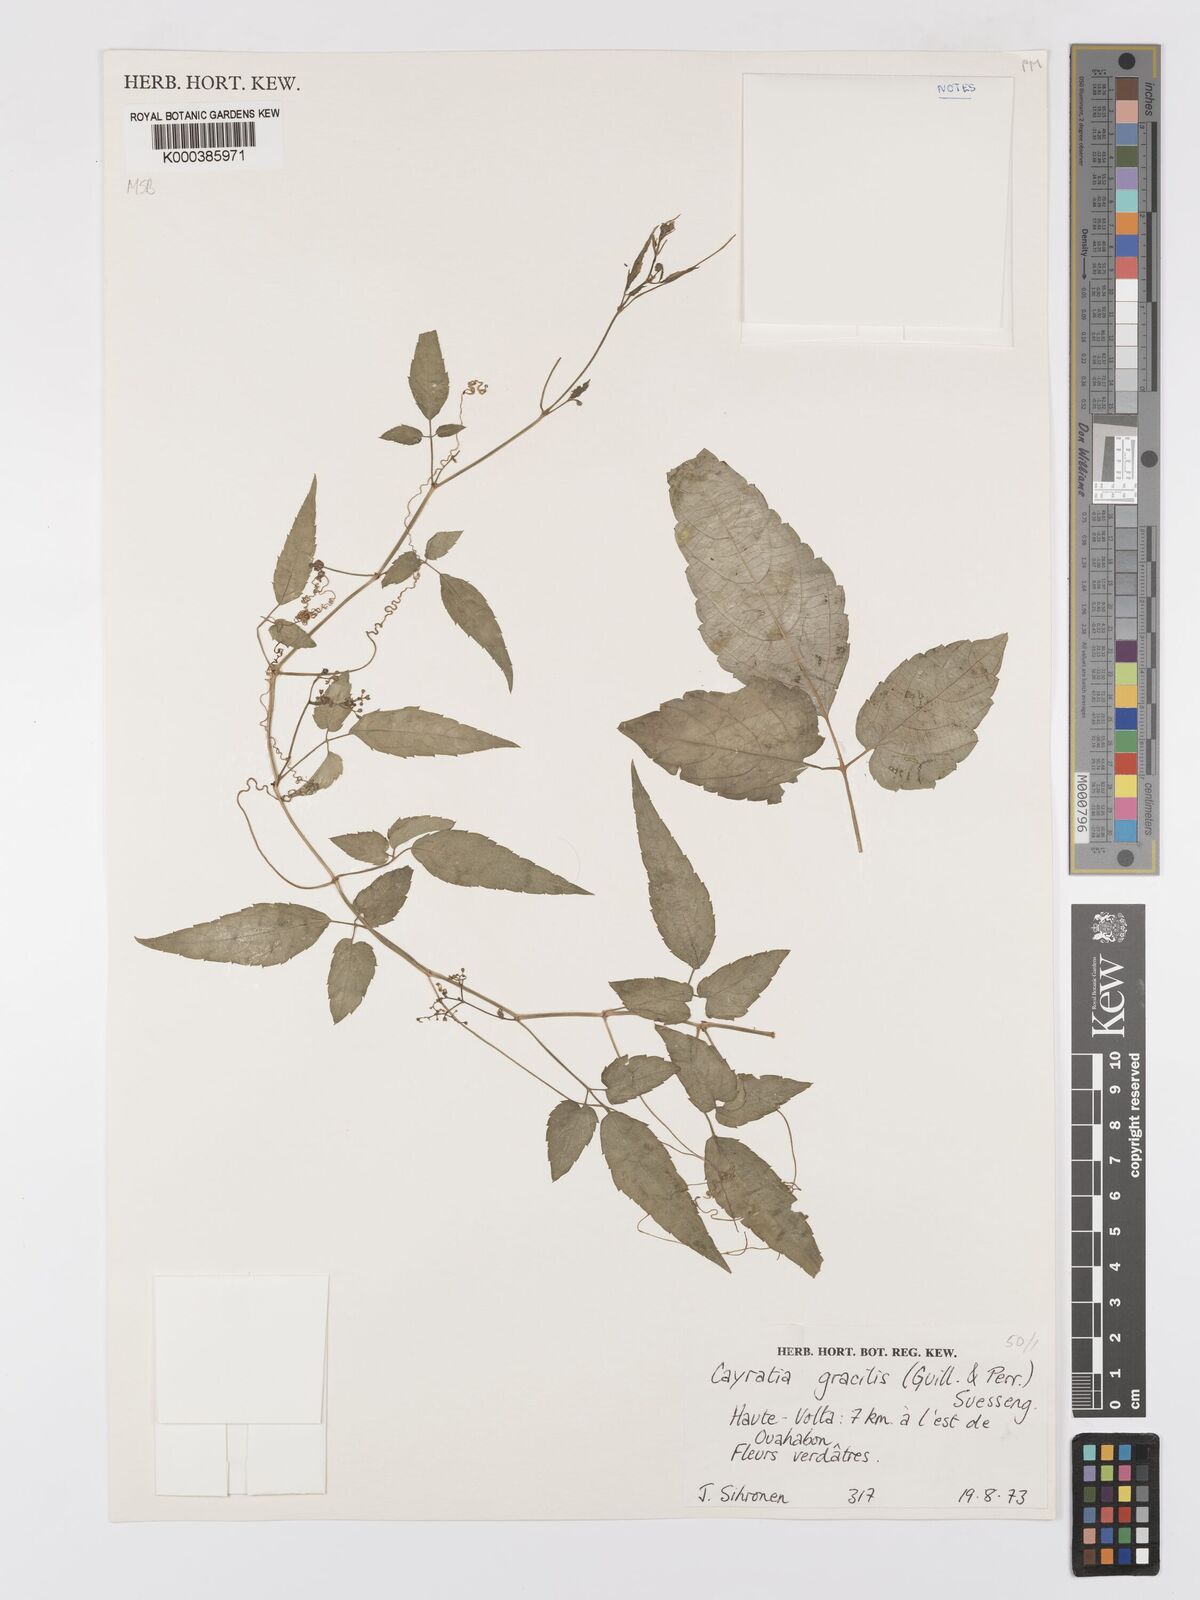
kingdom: Plantae
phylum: Tracheophyta
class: Magnoliopsida
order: Vitales
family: Vitaceae
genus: Afrocayratia
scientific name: Afrocayratia gracilis
